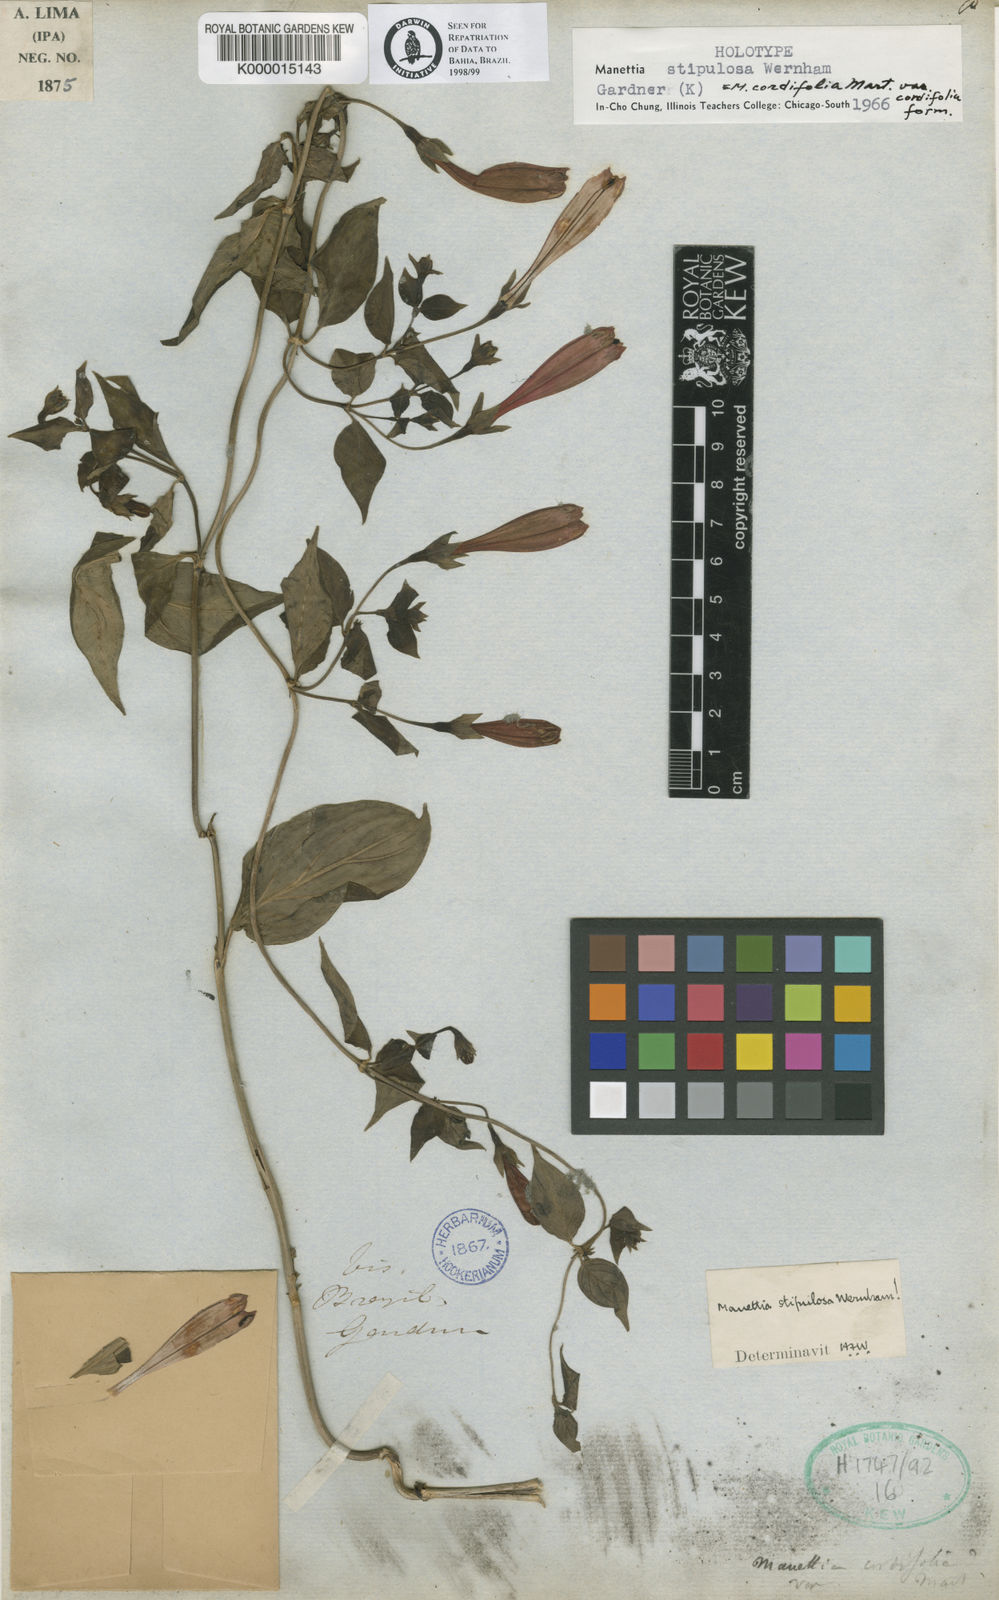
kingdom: Plantae
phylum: Tracheophyta
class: Magnoliopsida
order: Gentianales
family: Rubiaceae
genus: Manettia
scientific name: Manettia cordifolia
